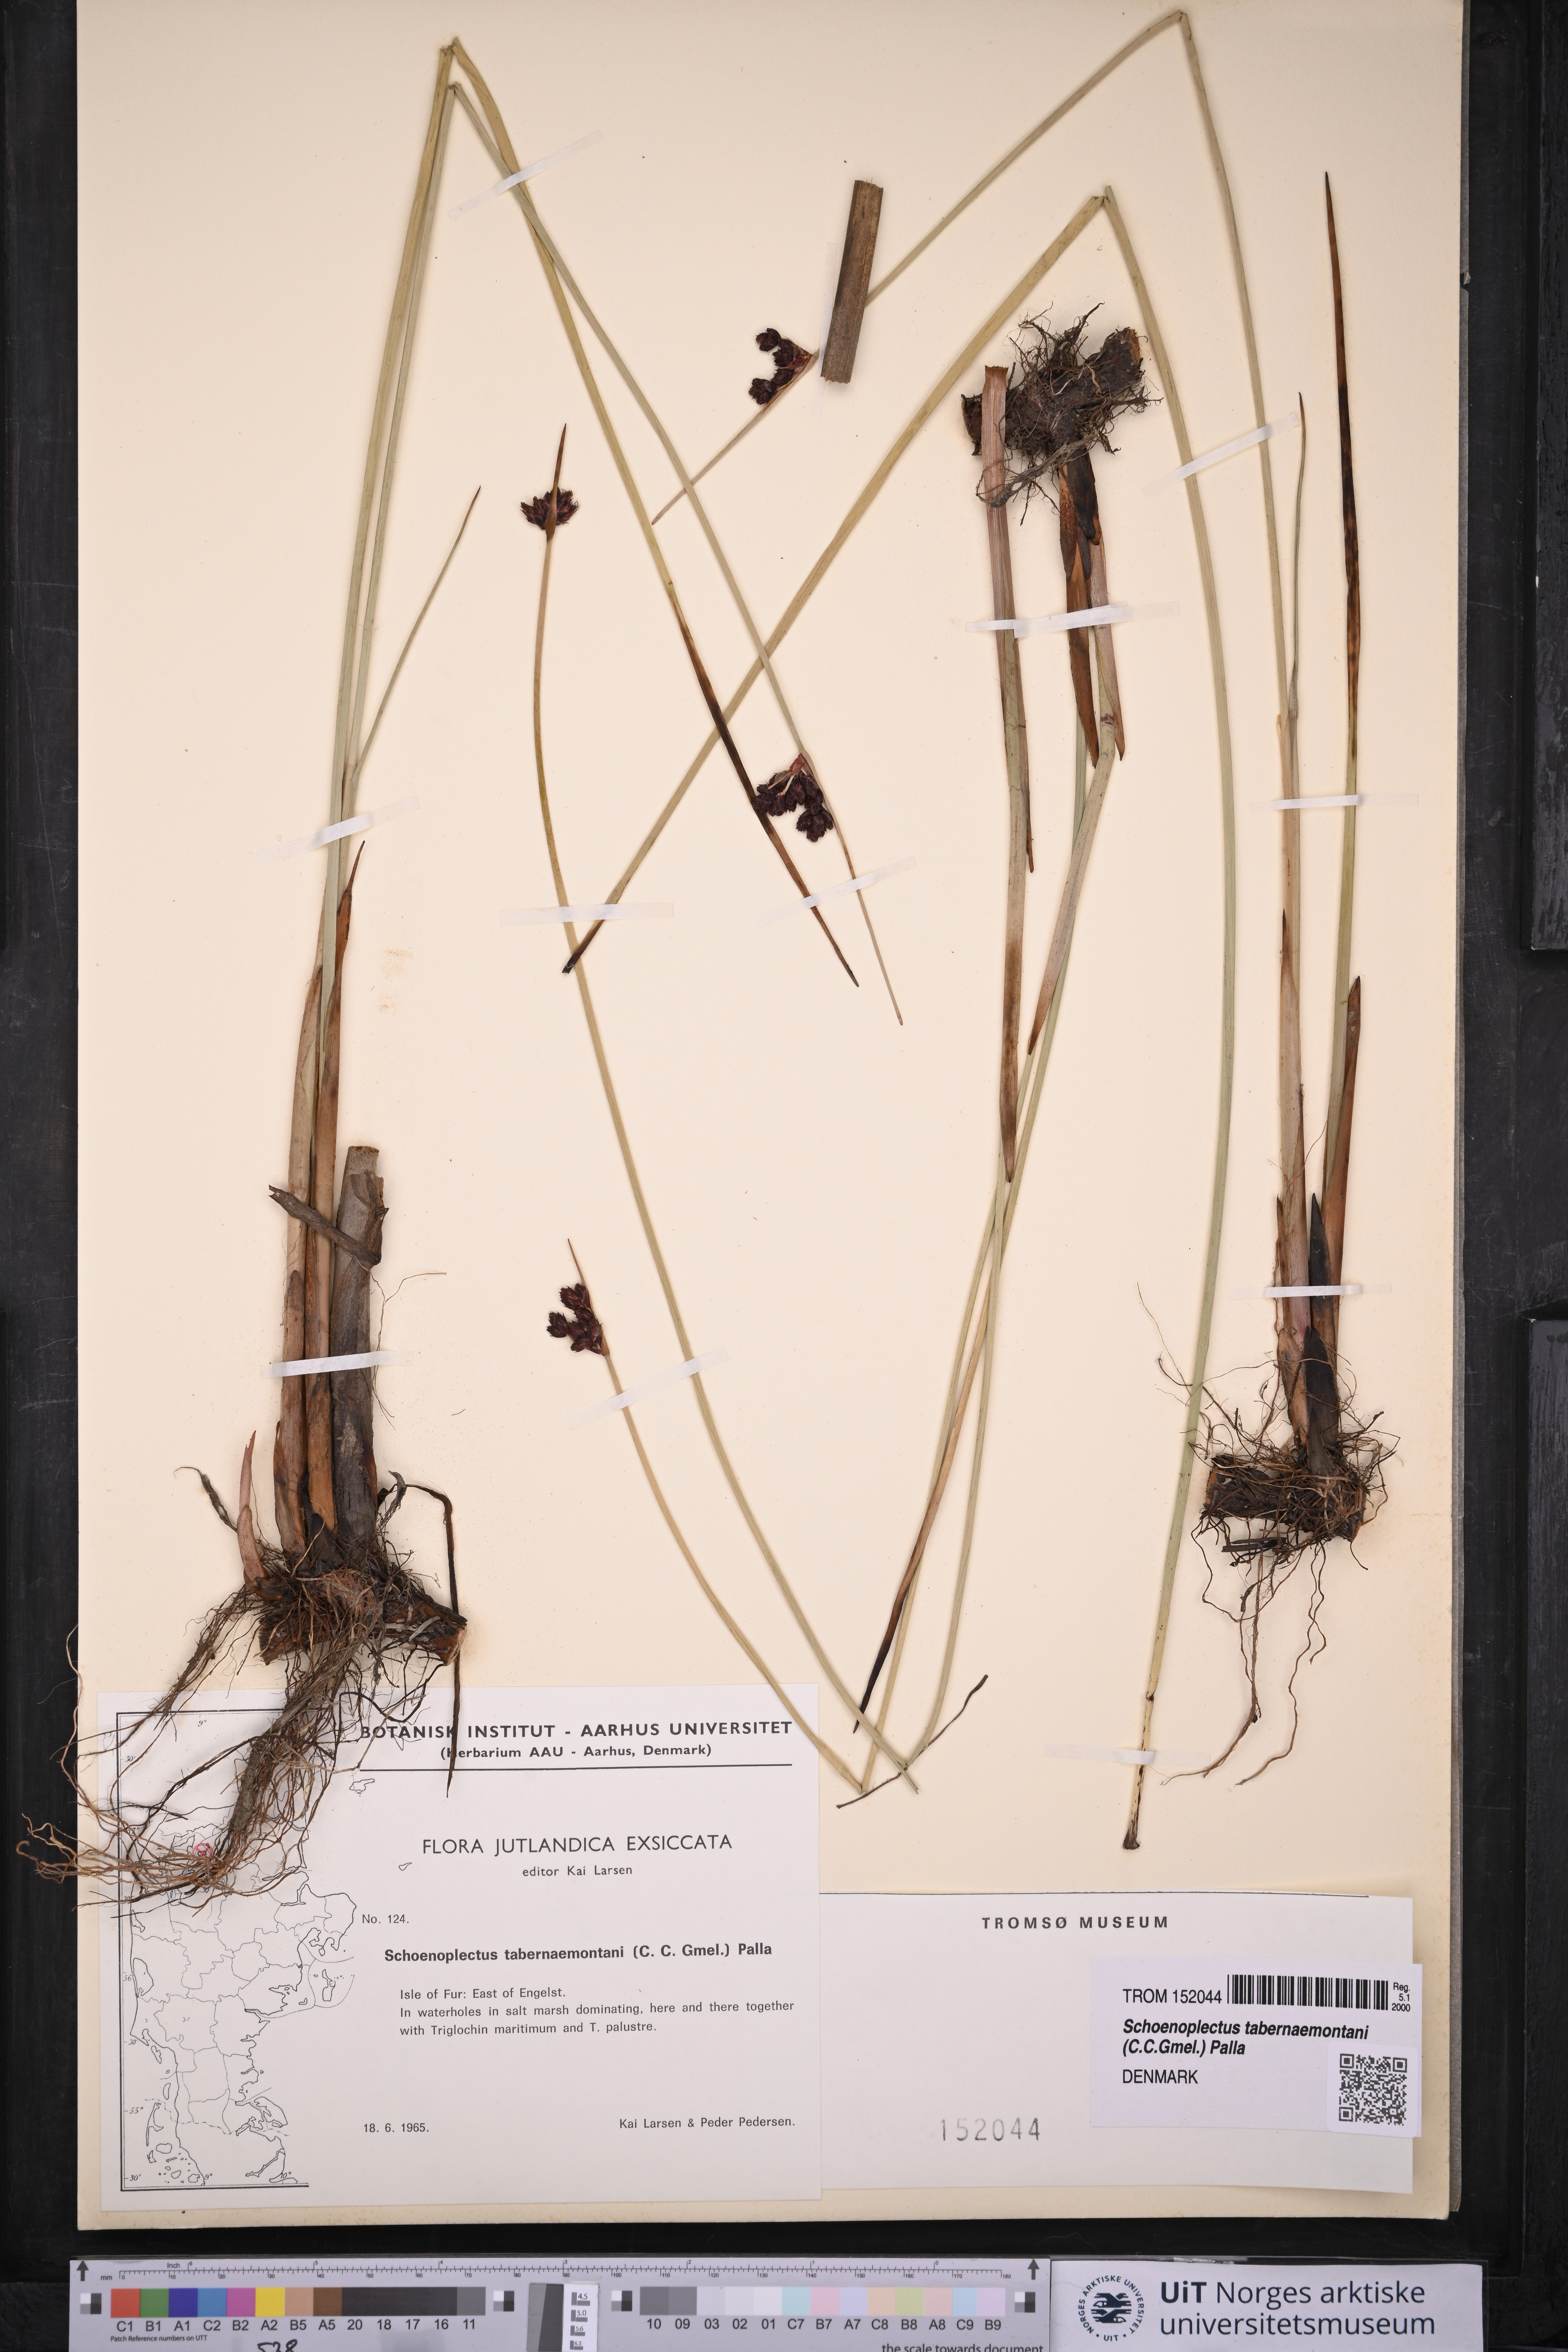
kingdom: Plantae
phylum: Tracheophyta
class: Liliopsida
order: Poales
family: Cyperaceae
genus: Schoenoplectus
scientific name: Schoenoplectus tabernaemontani
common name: Grey club-rush
